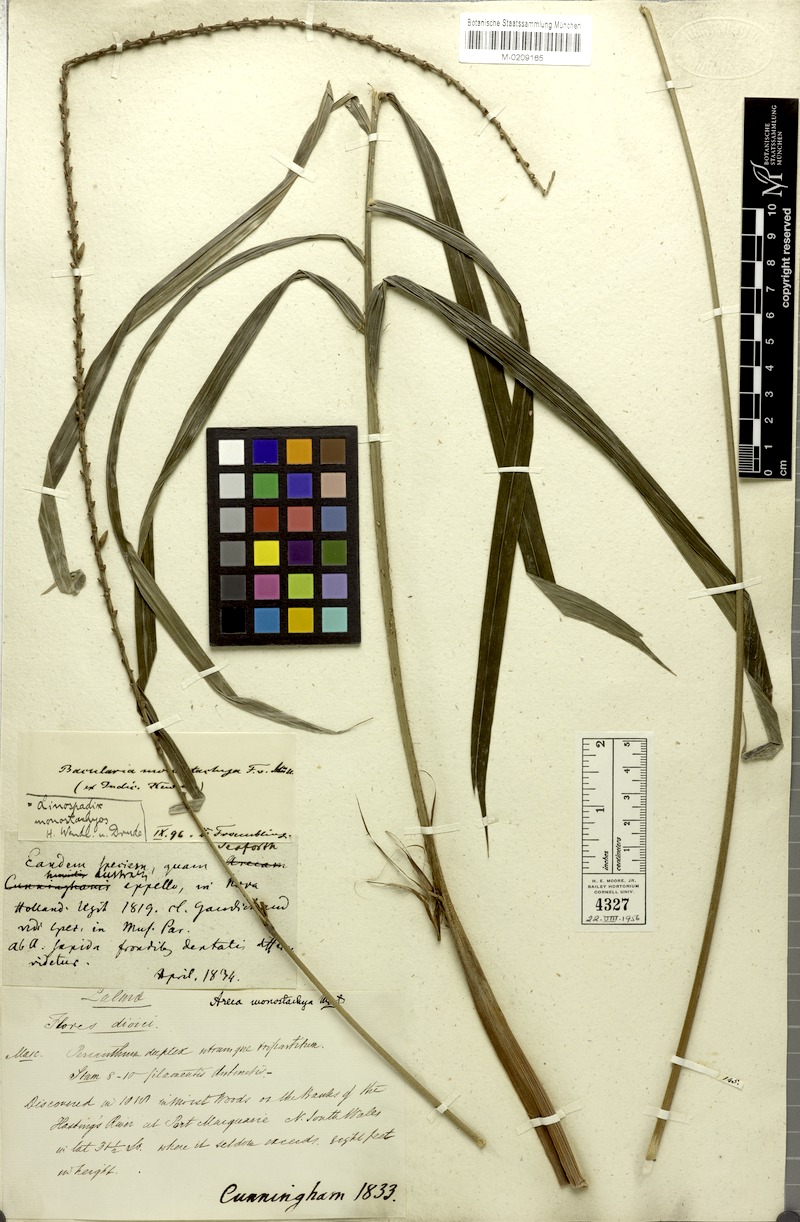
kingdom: Plantae
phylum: Tracheophyta
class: Liliopsida
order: Arecales
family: Arecaceae
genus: Linospadix
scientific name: Linospadix monostachyos
